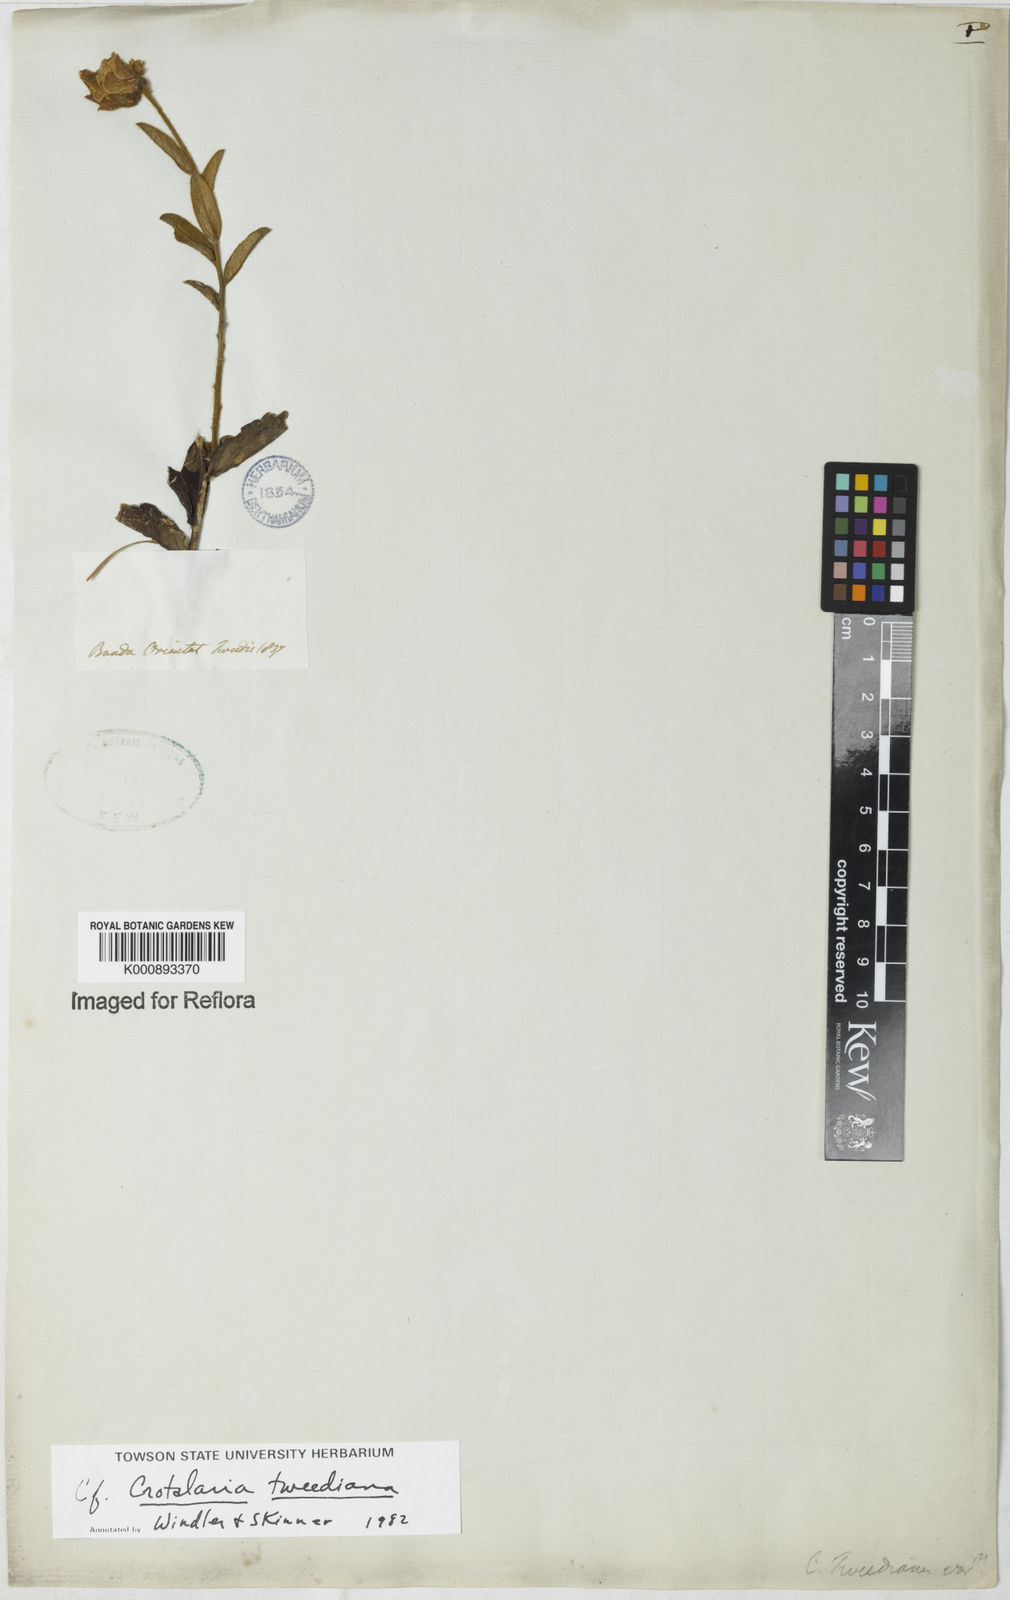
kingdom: Plantae
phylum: Tracheophyta
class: Magnoliopsida
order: Fabales
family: Fabaceae
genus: Crotalaria
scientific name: Crotalaria
